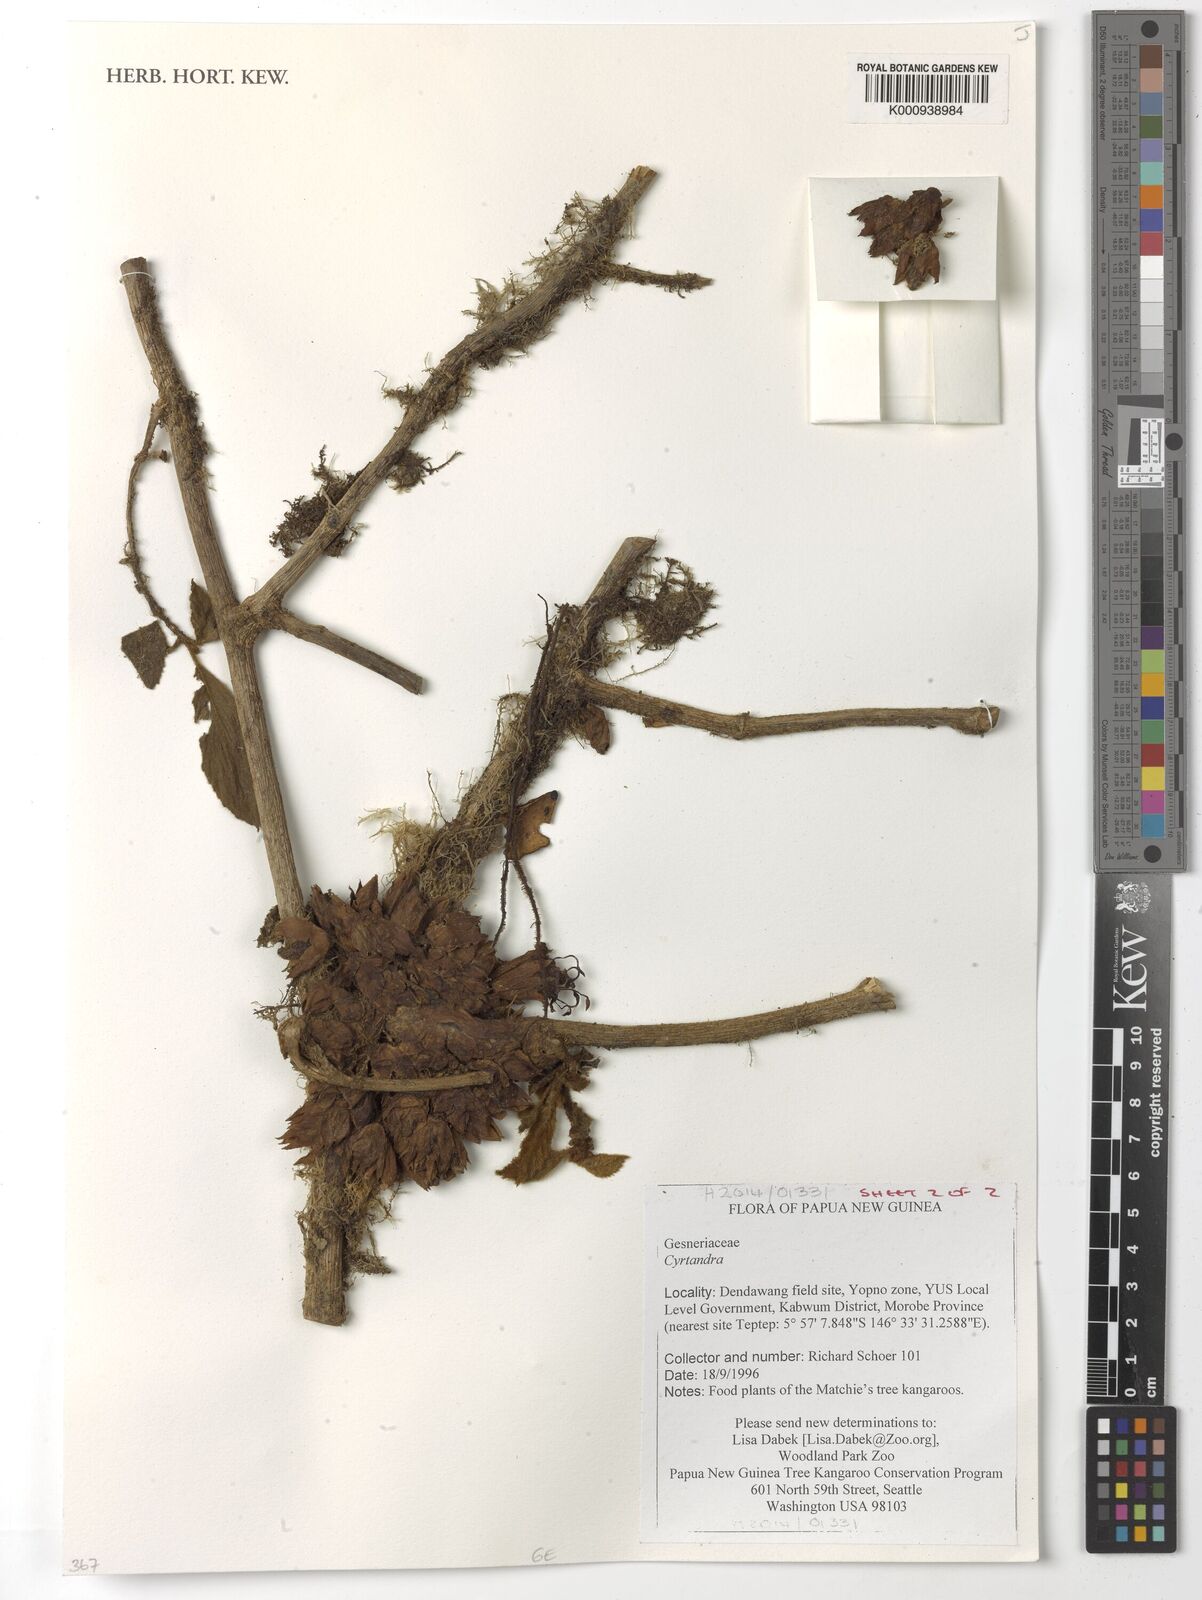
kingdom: Plantae
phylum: Tracheophyta
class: Magnoliopsida
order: Lamiales
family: Gesneriaceae
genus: Cyrtandra
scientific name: Cyrtandra
